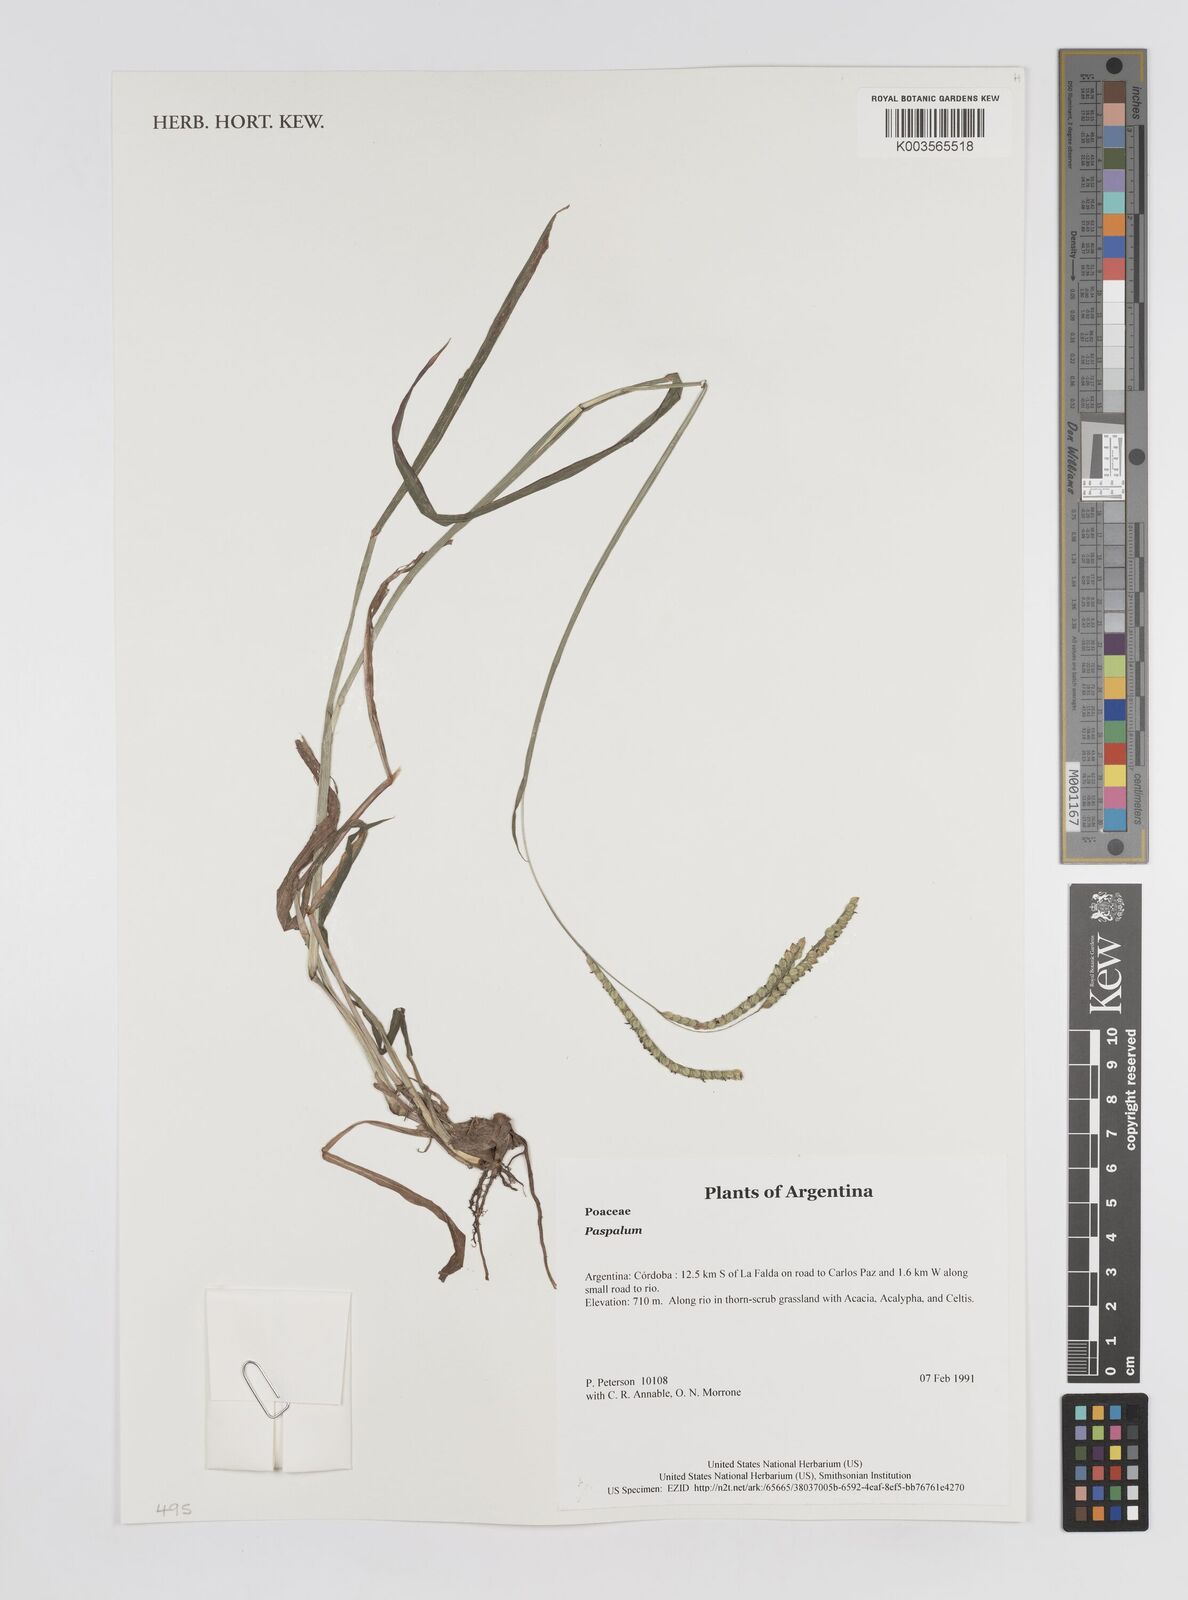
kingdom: Plantae
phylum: Tracheophyta
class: Liliopsida
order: Poales
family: Poaceae
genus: Paspalum
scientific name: Paspalum
